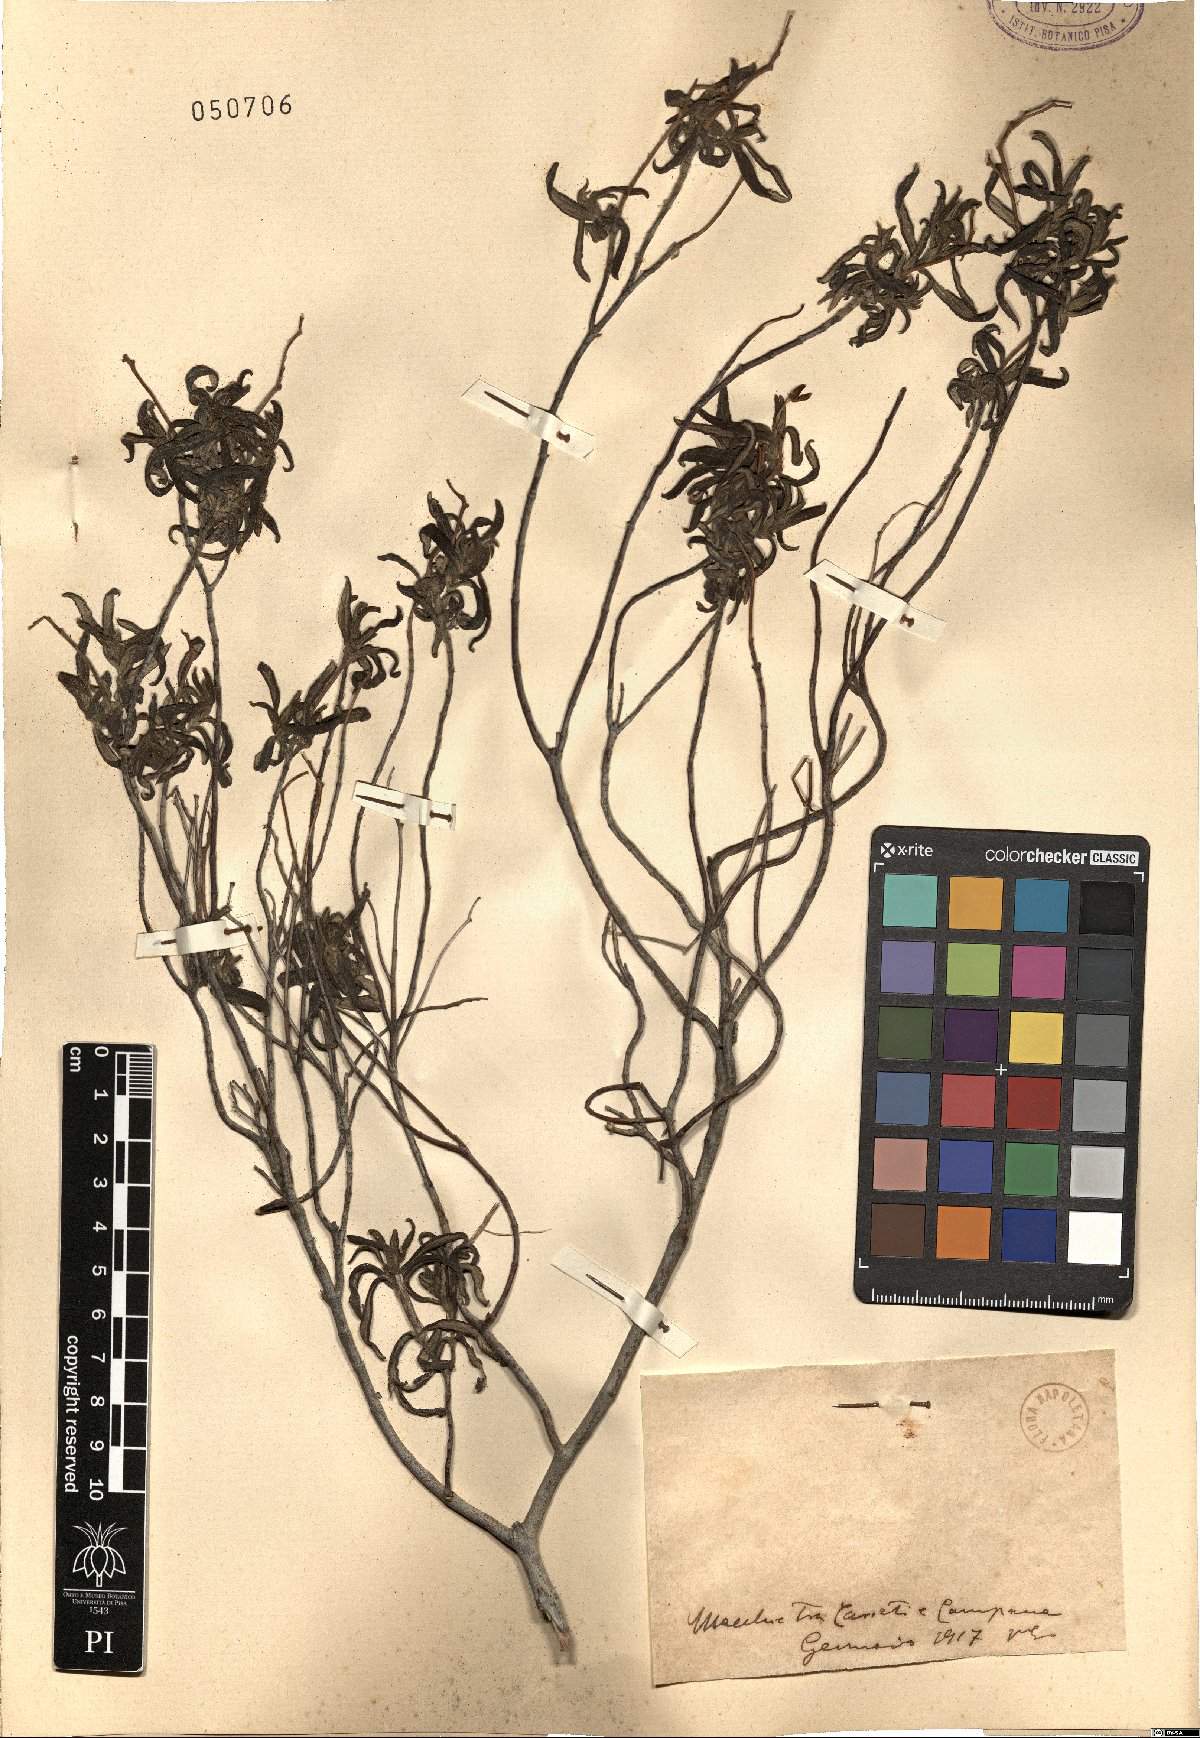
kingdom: Plantae
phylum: Tracheophyta
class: Magnoliopsida
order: Malvales
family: Cistaceae
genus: Cistus
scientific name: Cistus
